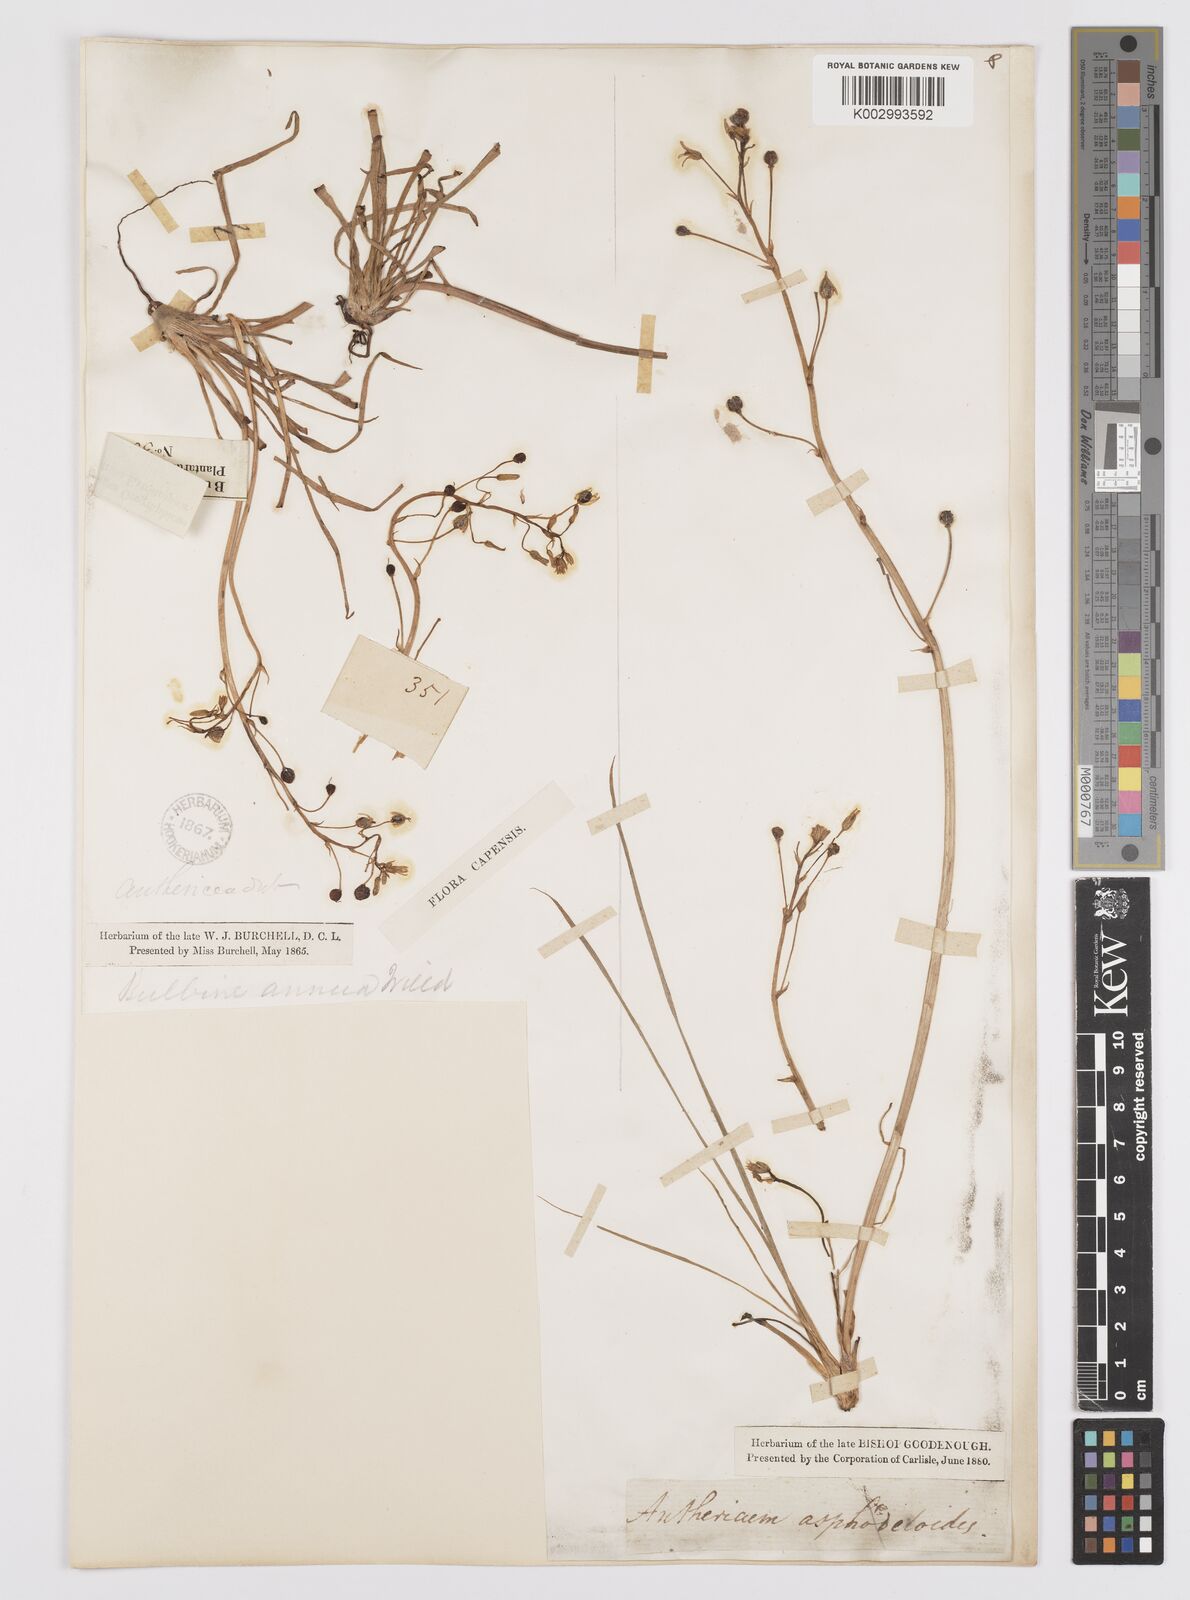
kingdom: Plantae
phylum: Tracheophyta
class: Liliopsida
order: Asparagales
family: Asphodelaceae
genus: Bulbine
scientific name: Bulbine annua
